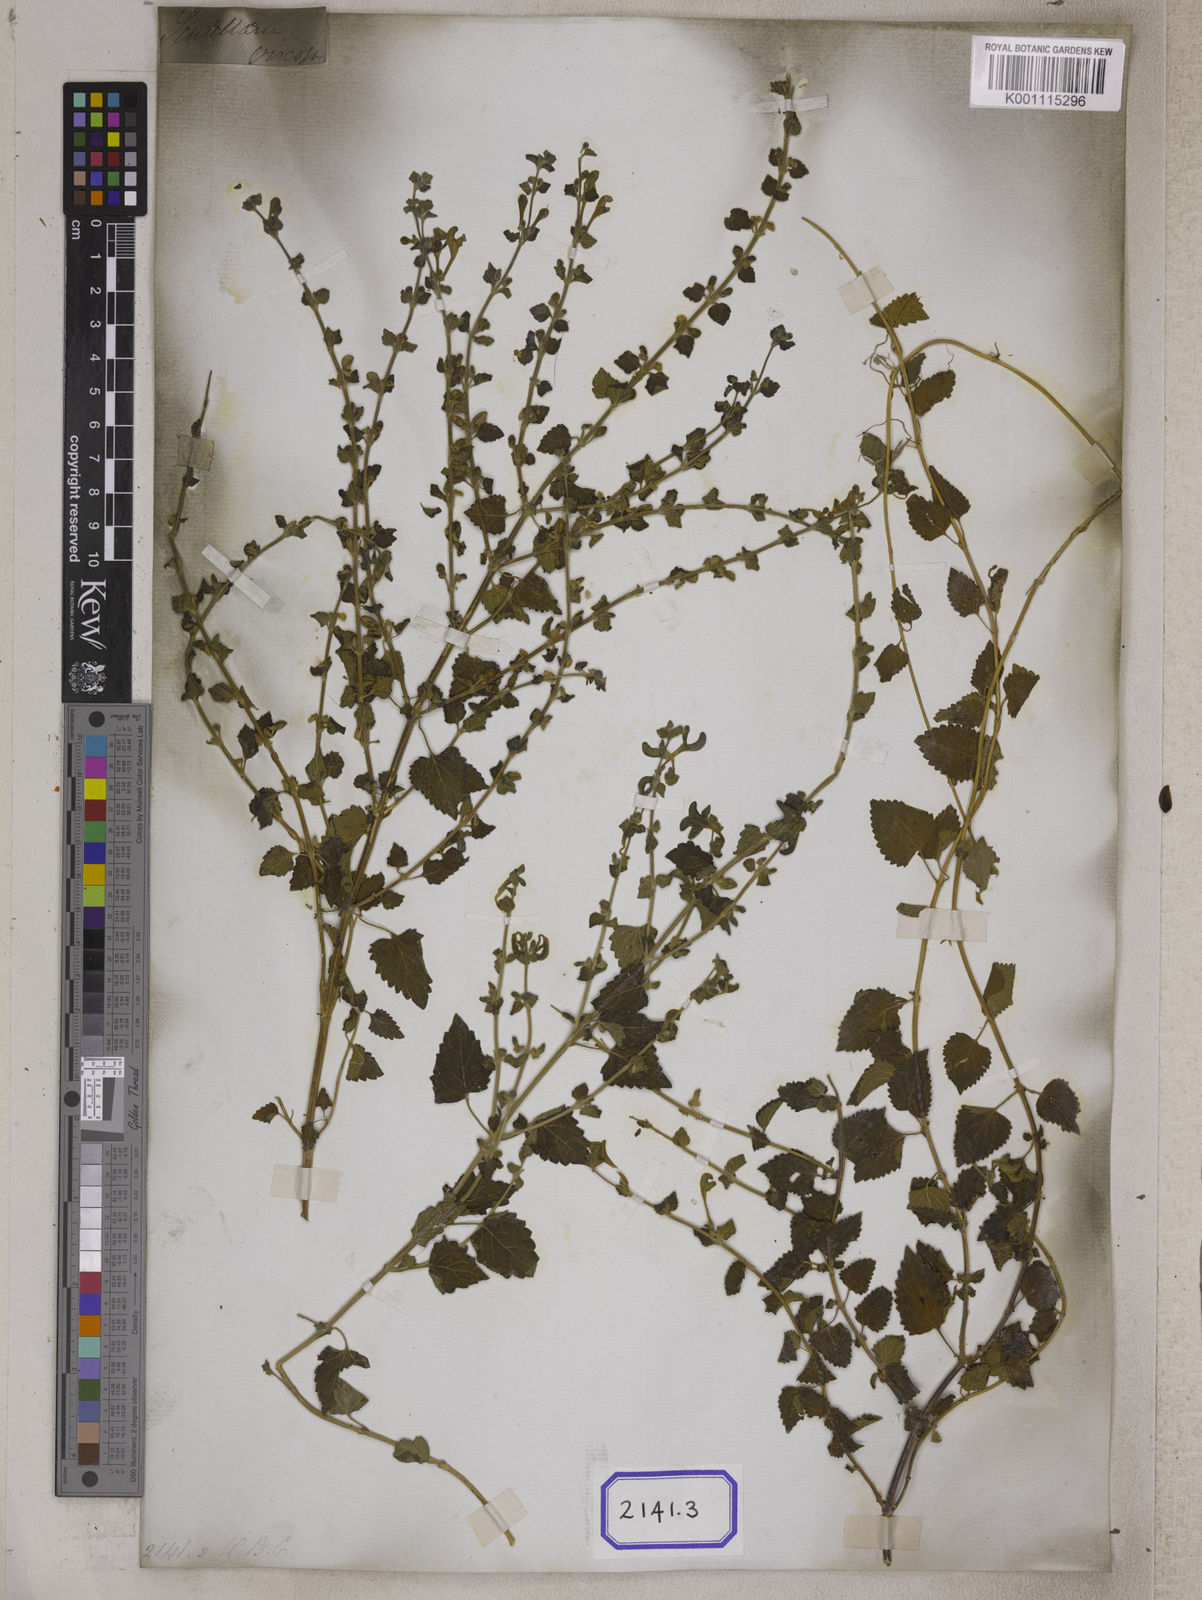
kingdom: Plantae
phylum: Tracheophyta
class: Magnoliopsida
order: Lamiales
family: Lamiaceae
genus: Scutellaria
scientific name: Scutellaria
